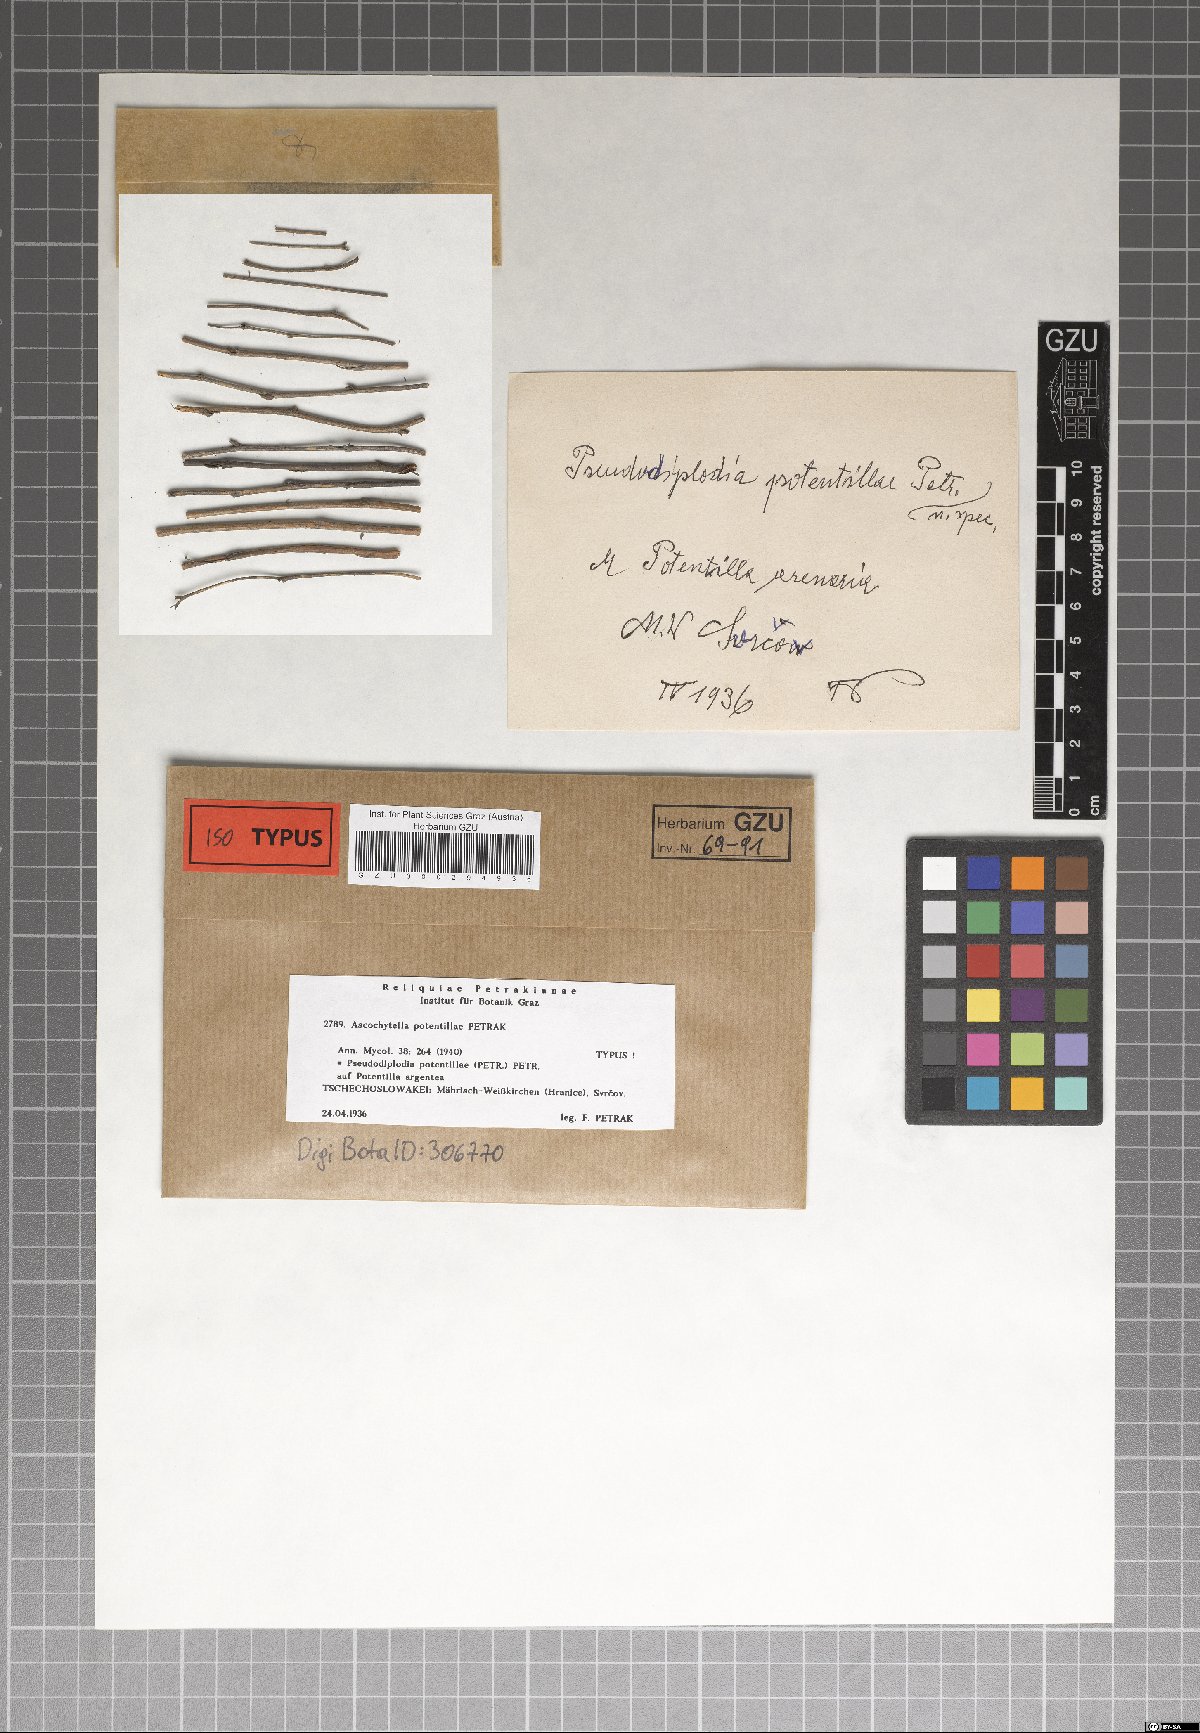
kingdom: Fungi
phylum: Ascomycota
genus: Pseudodiplodia
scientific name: Pseudodiplodia potentillae
